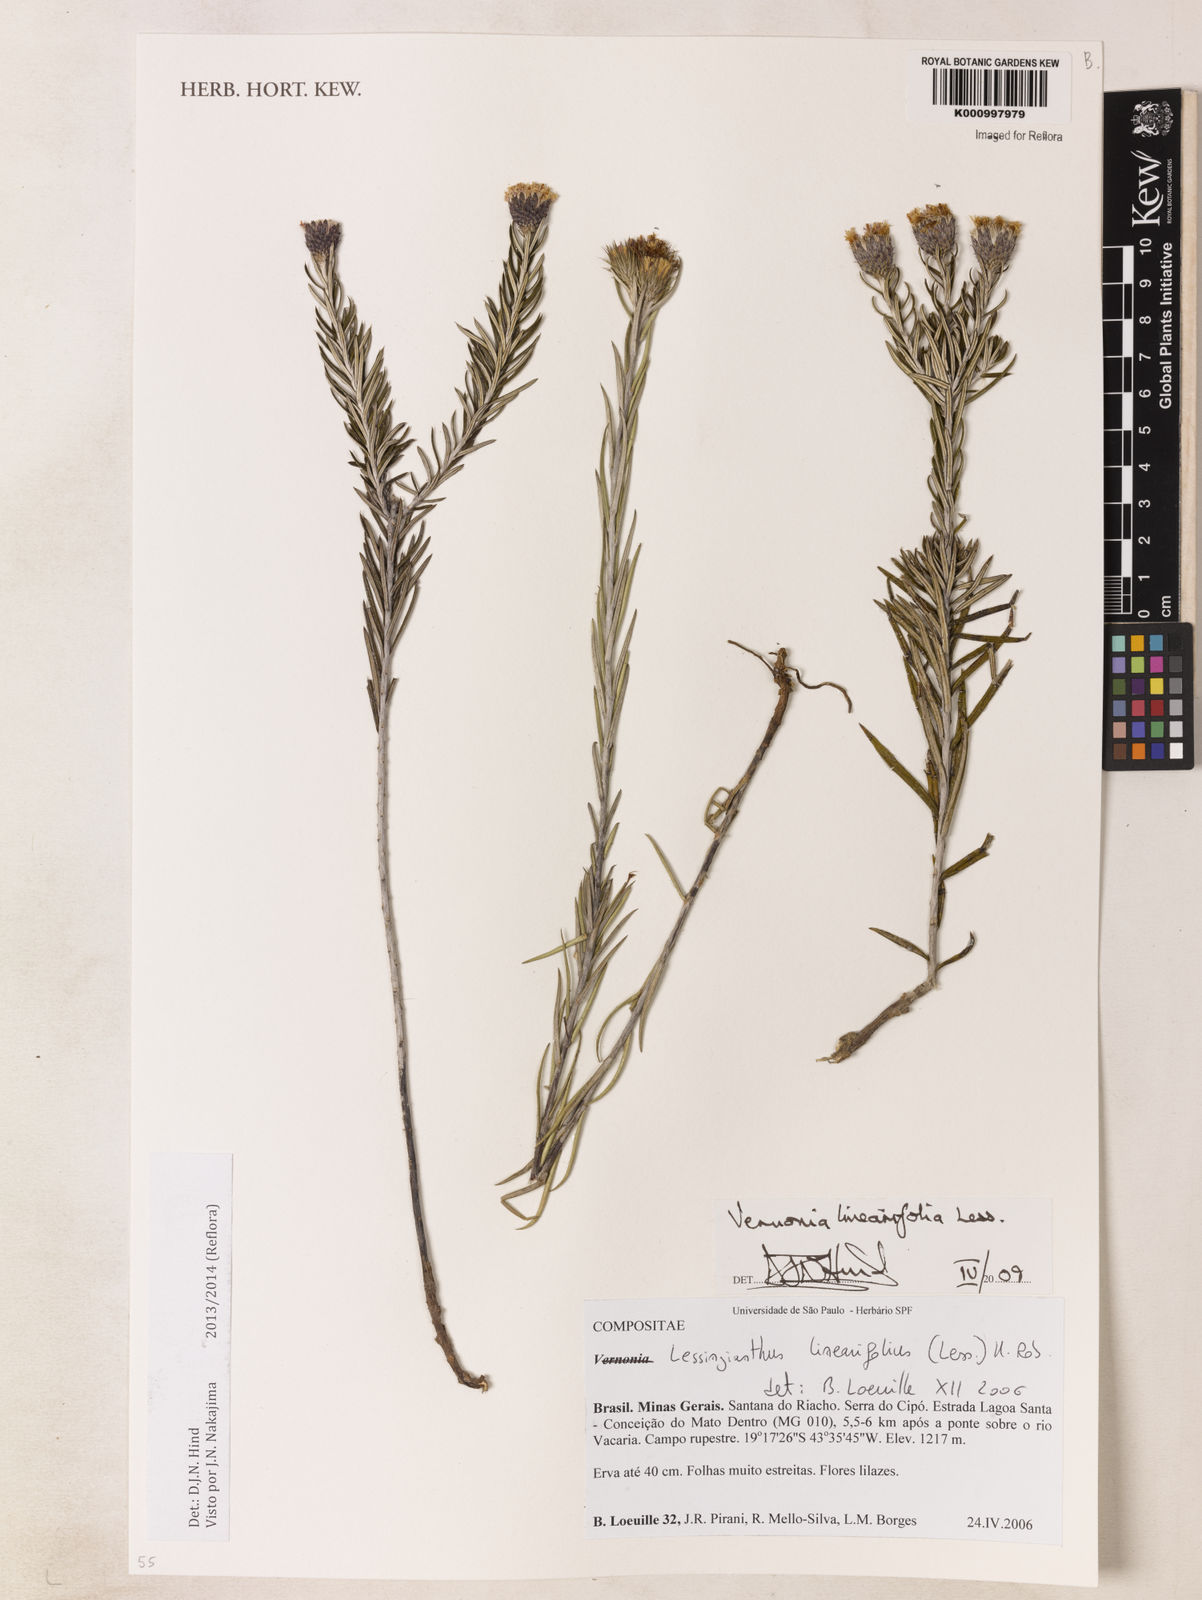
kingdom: Plantae
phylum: Tracheophyta
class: Magnoliopsida
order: Asterales
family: Asteraceae
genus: Lessingianthus
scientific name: Lessingianthus rosmarinifolius
